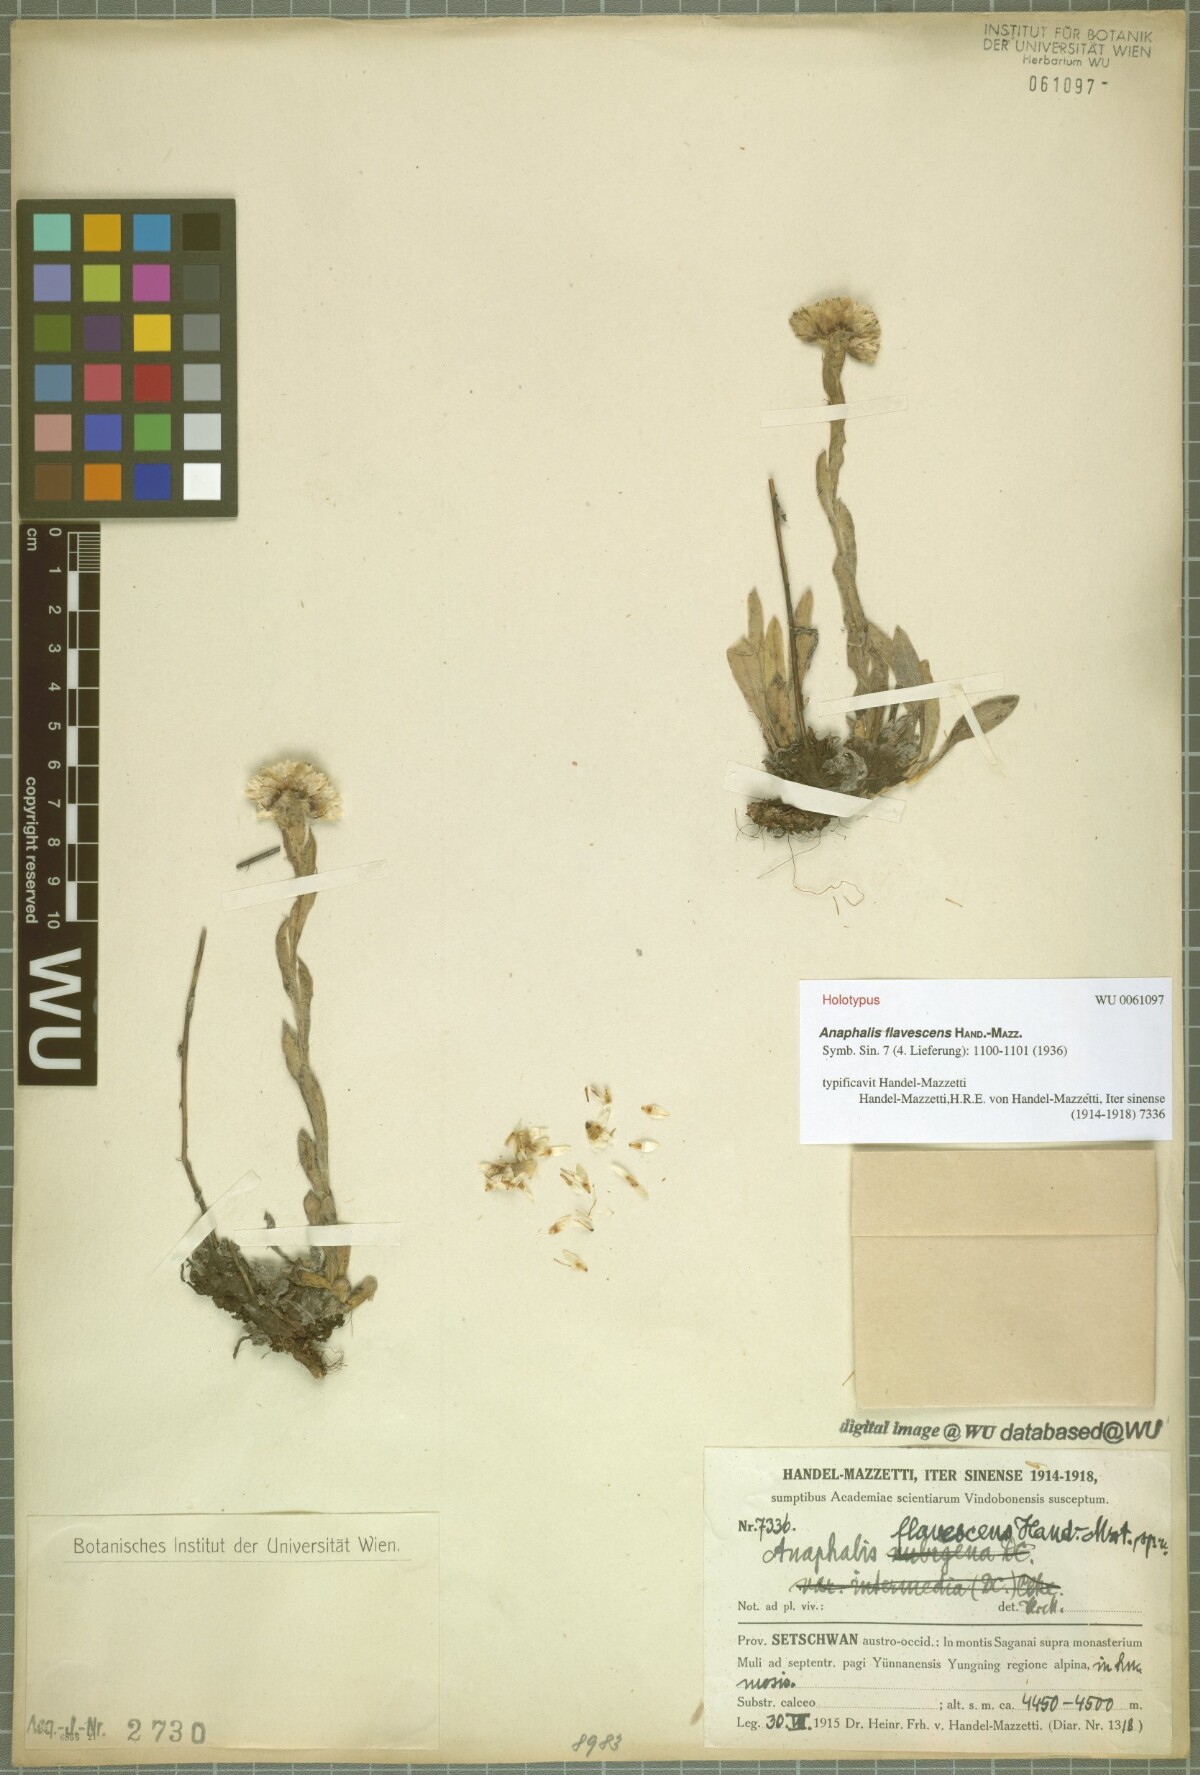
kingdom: Plantae
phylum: Tracheophyta
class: Magnoliopsida
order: Asterales
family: Asteraceae
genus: Anaphalis
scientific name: Anaphalis flavescens
